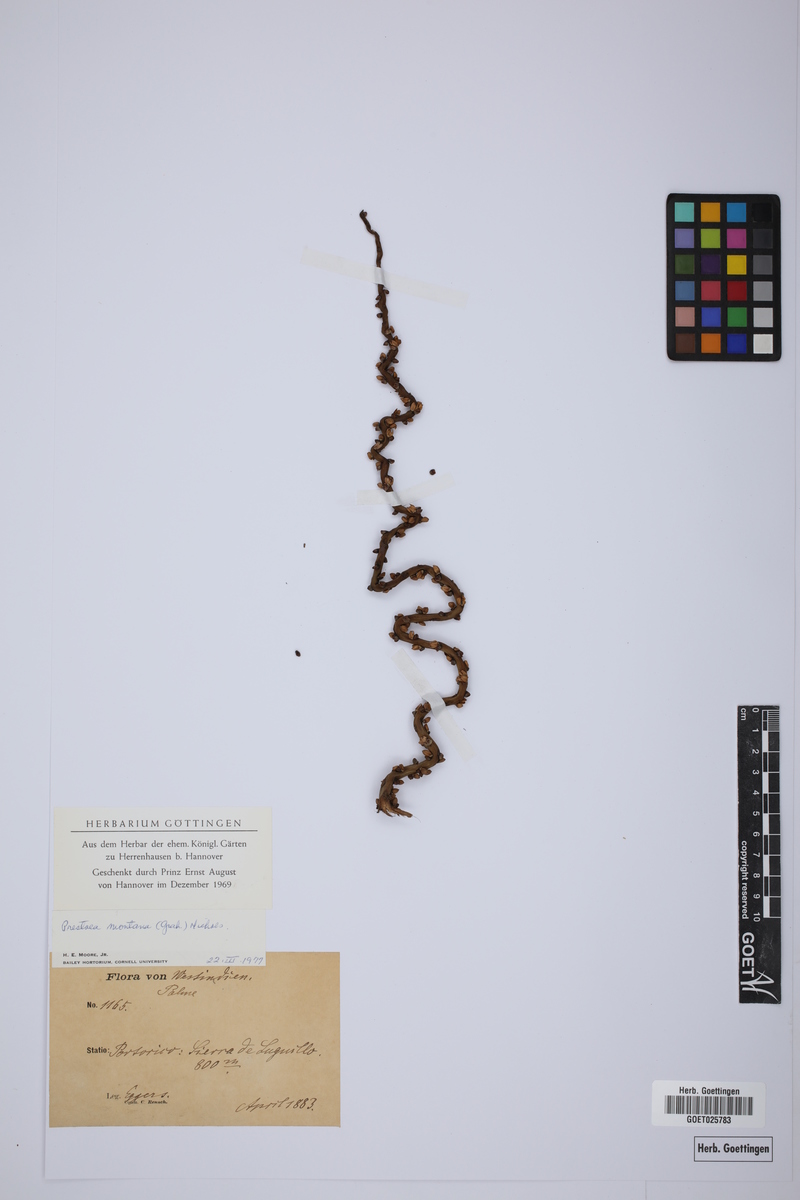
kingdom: Plantae
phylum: Tracheophyta
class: Liliopsida
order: Arecales
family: Arecaceae
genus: Prestoea
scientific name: Prestoea acuminata
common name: Sierran palm
